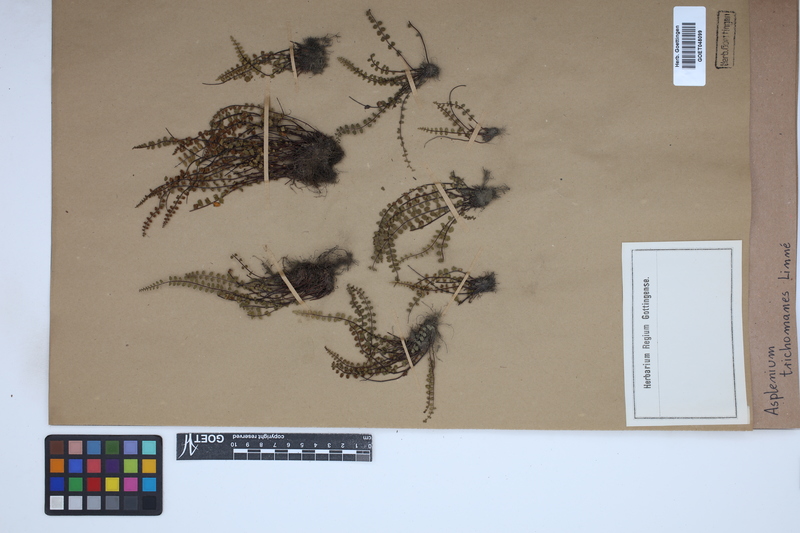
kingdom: Plantae
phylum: Tracheophyta
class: Polypodiopsida
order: Polypodiales
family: Aspleniaceae
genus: Asplenium
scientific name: Asplenium trichomanes
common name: Maidenhair spleenwort
